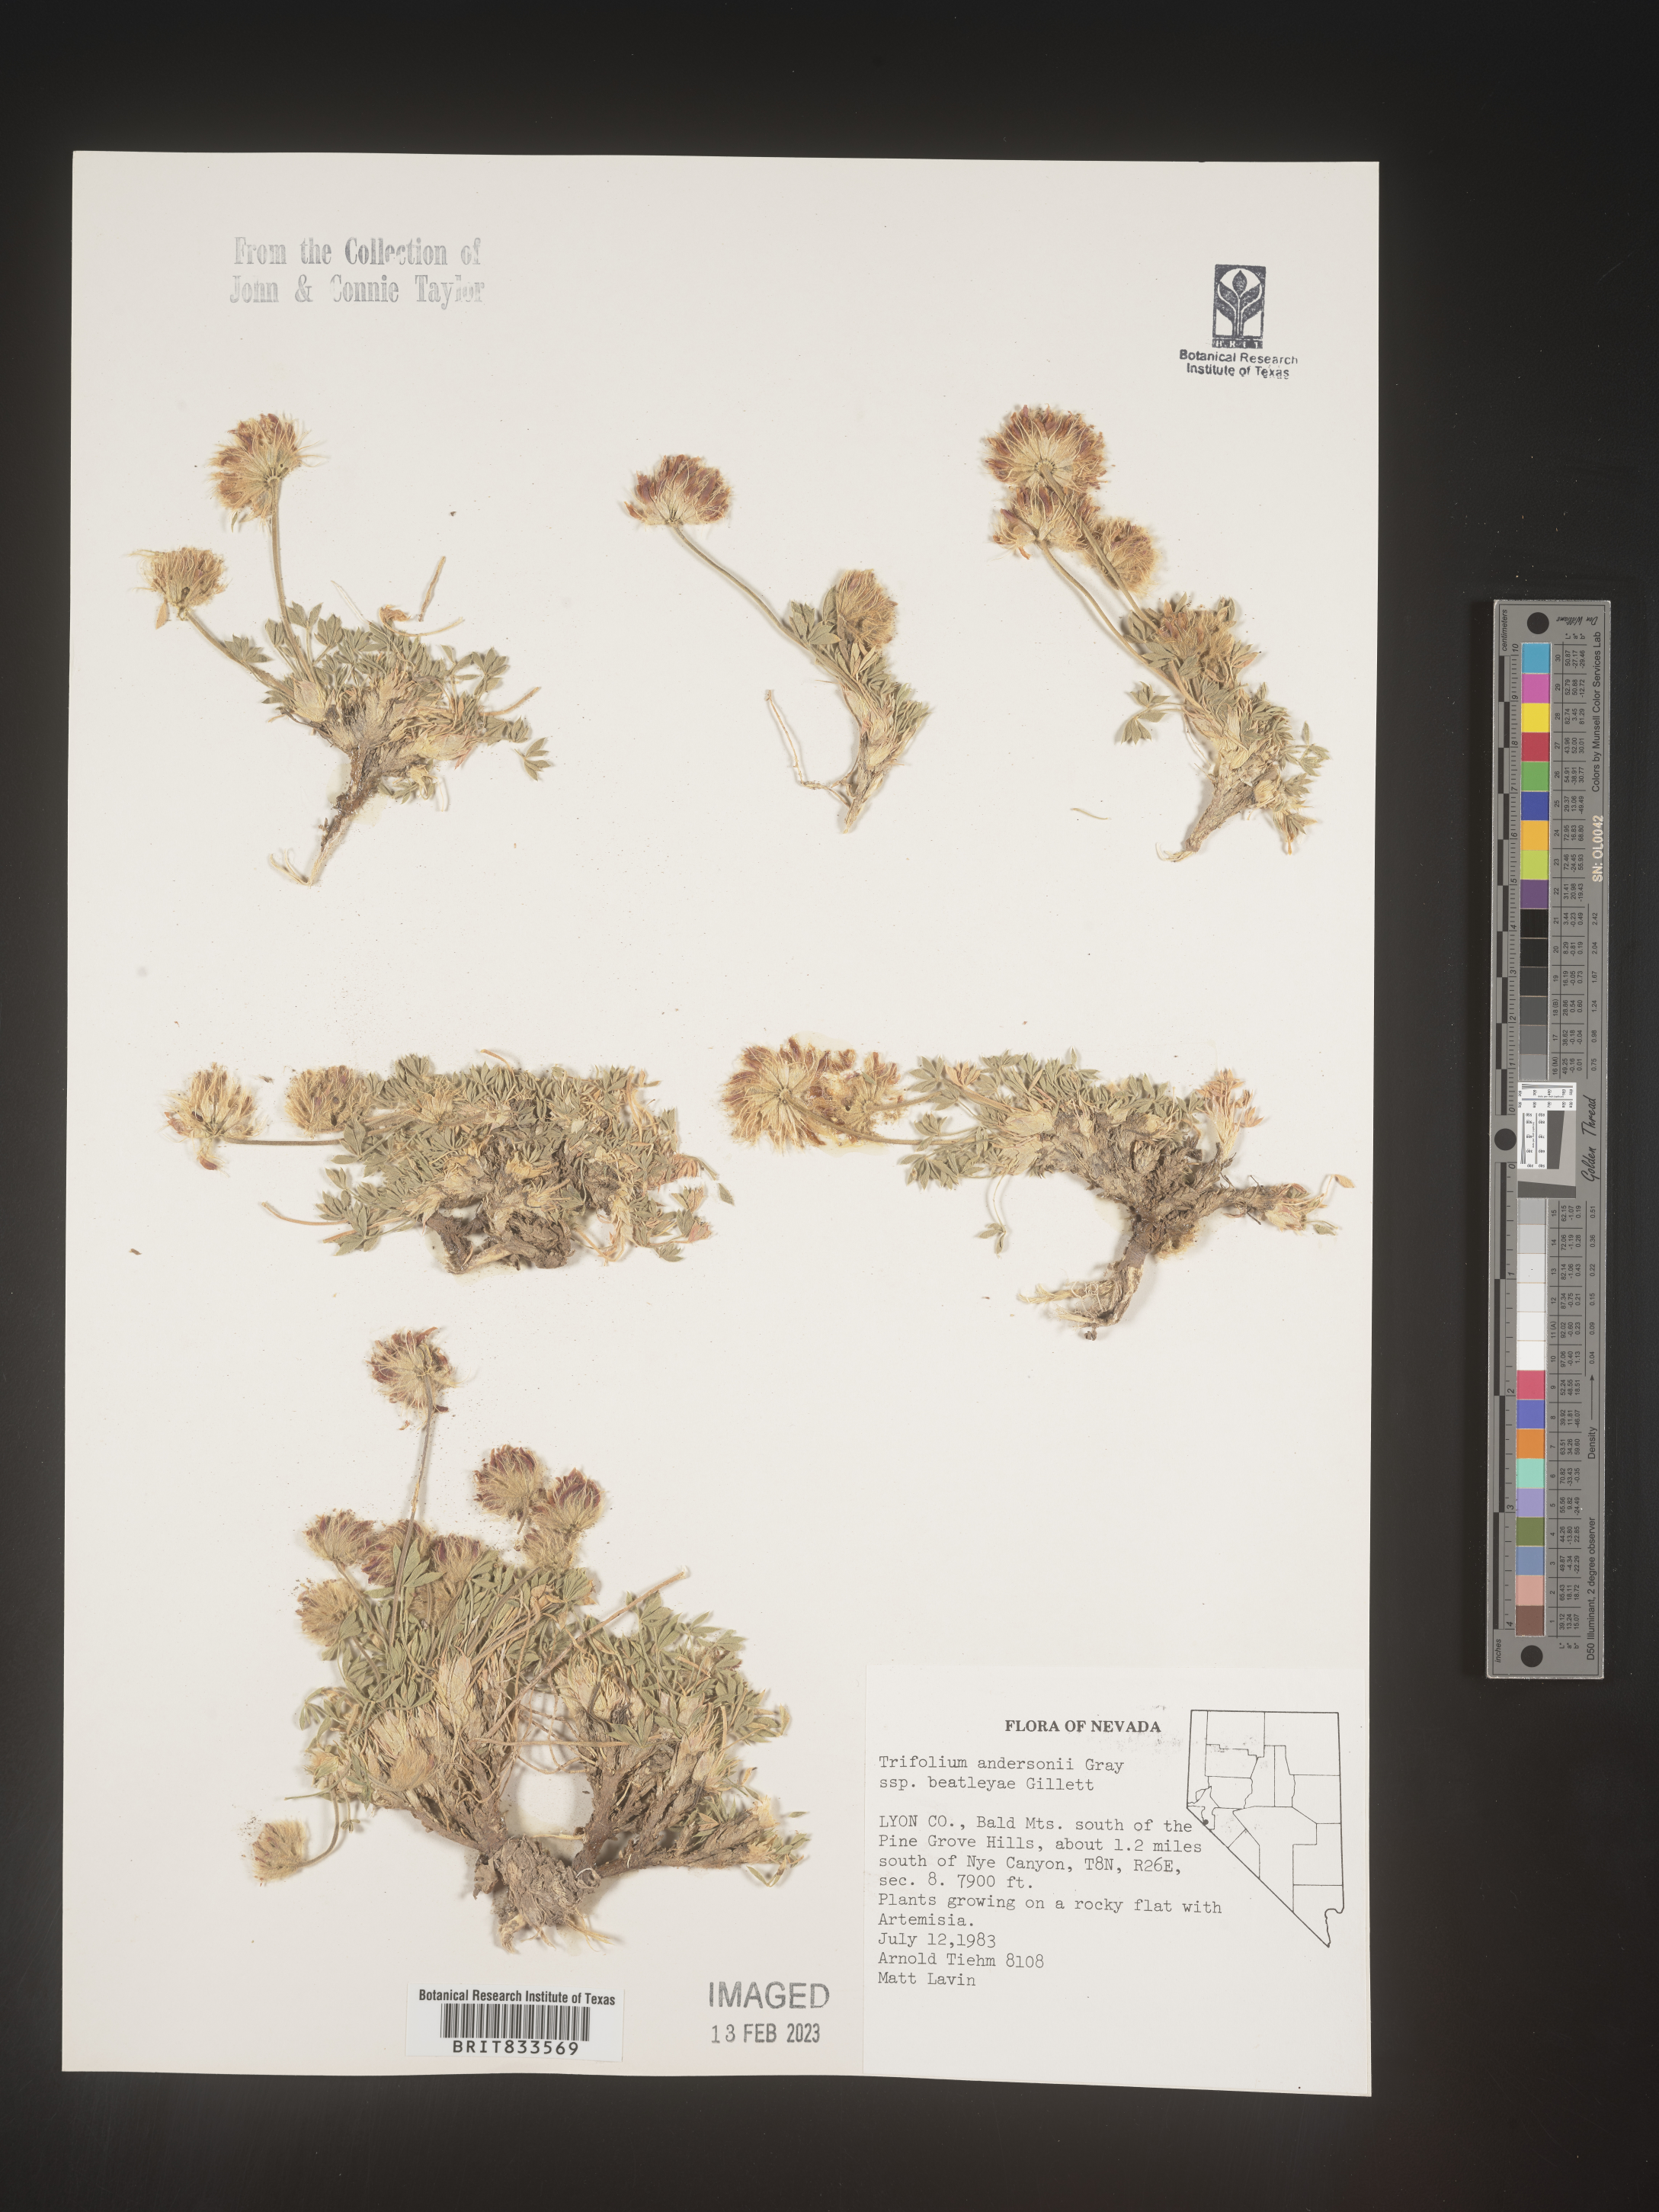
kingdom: Plantae
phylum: Tracheophyta
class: Magnoliopsida
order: Fabales
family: Fabaceae
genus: Trifolium
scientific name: Trifolium
